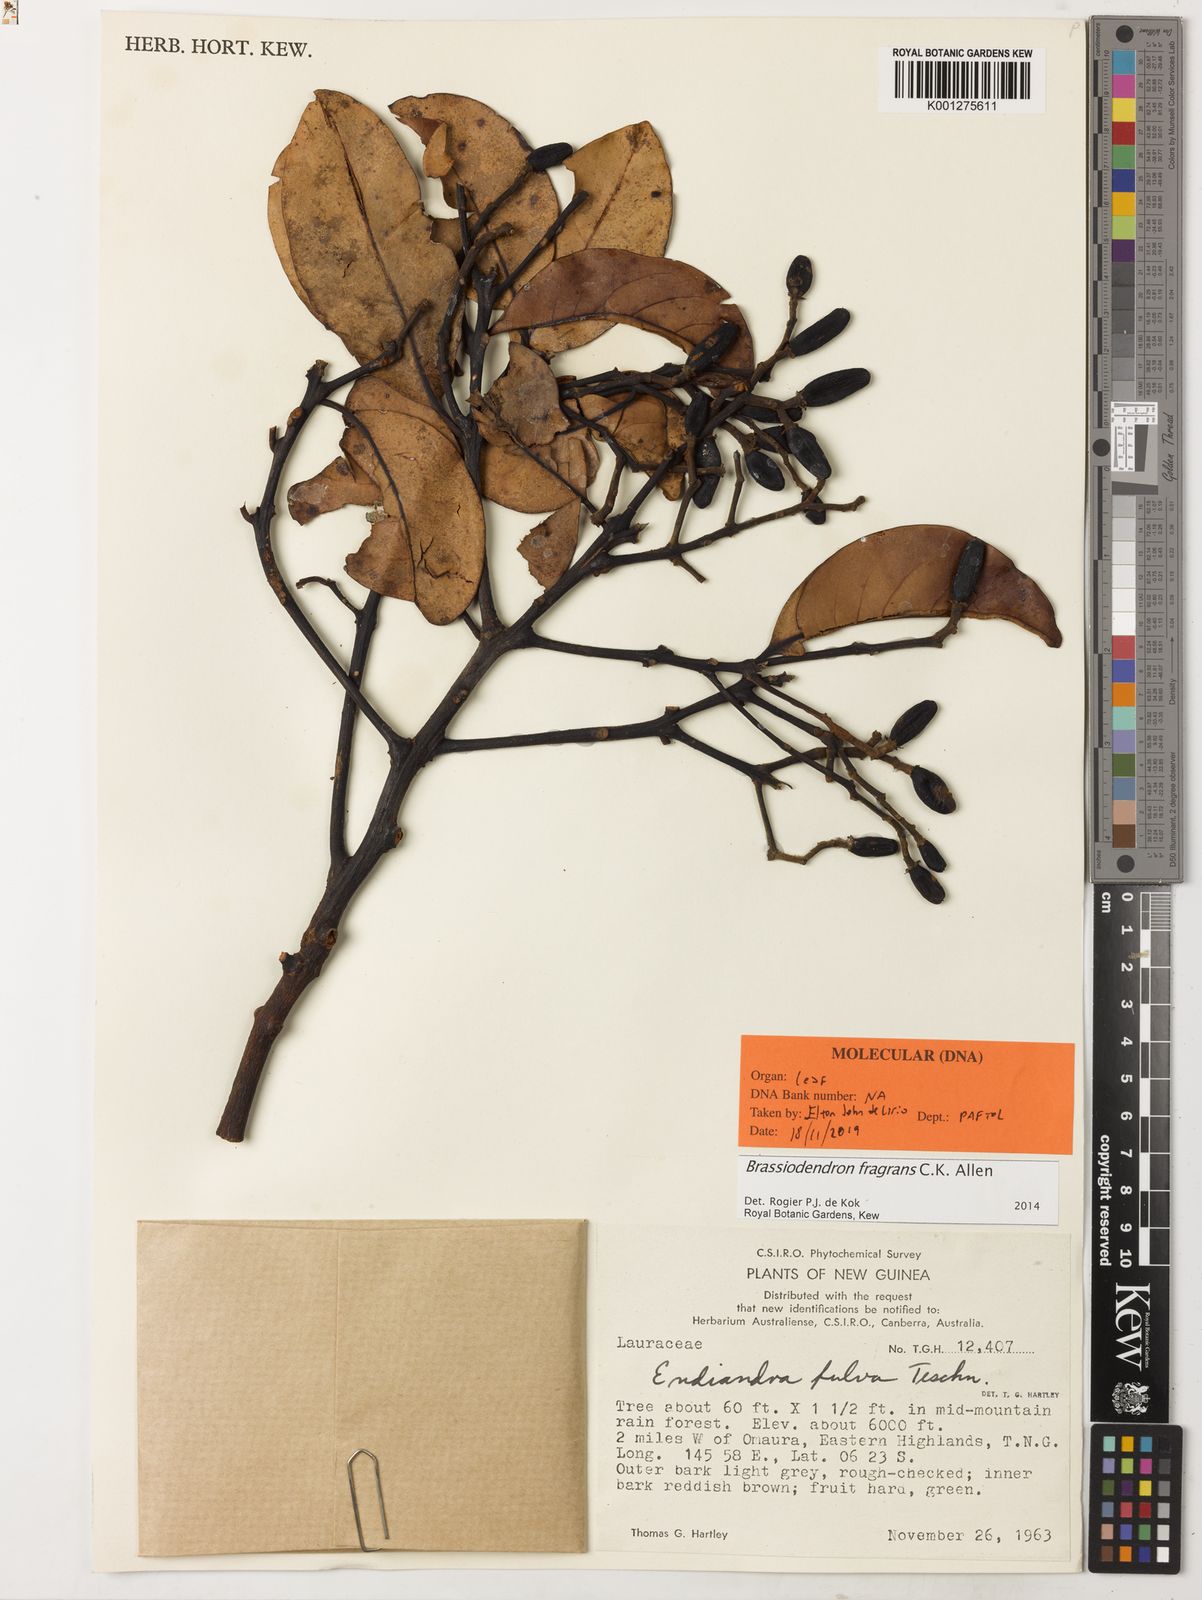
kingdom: Plantae
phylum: Tracheophyta
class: Magnoliopsida
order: Laurales
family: Lauraceae
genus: Endiandra
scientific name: Endiandra montana
